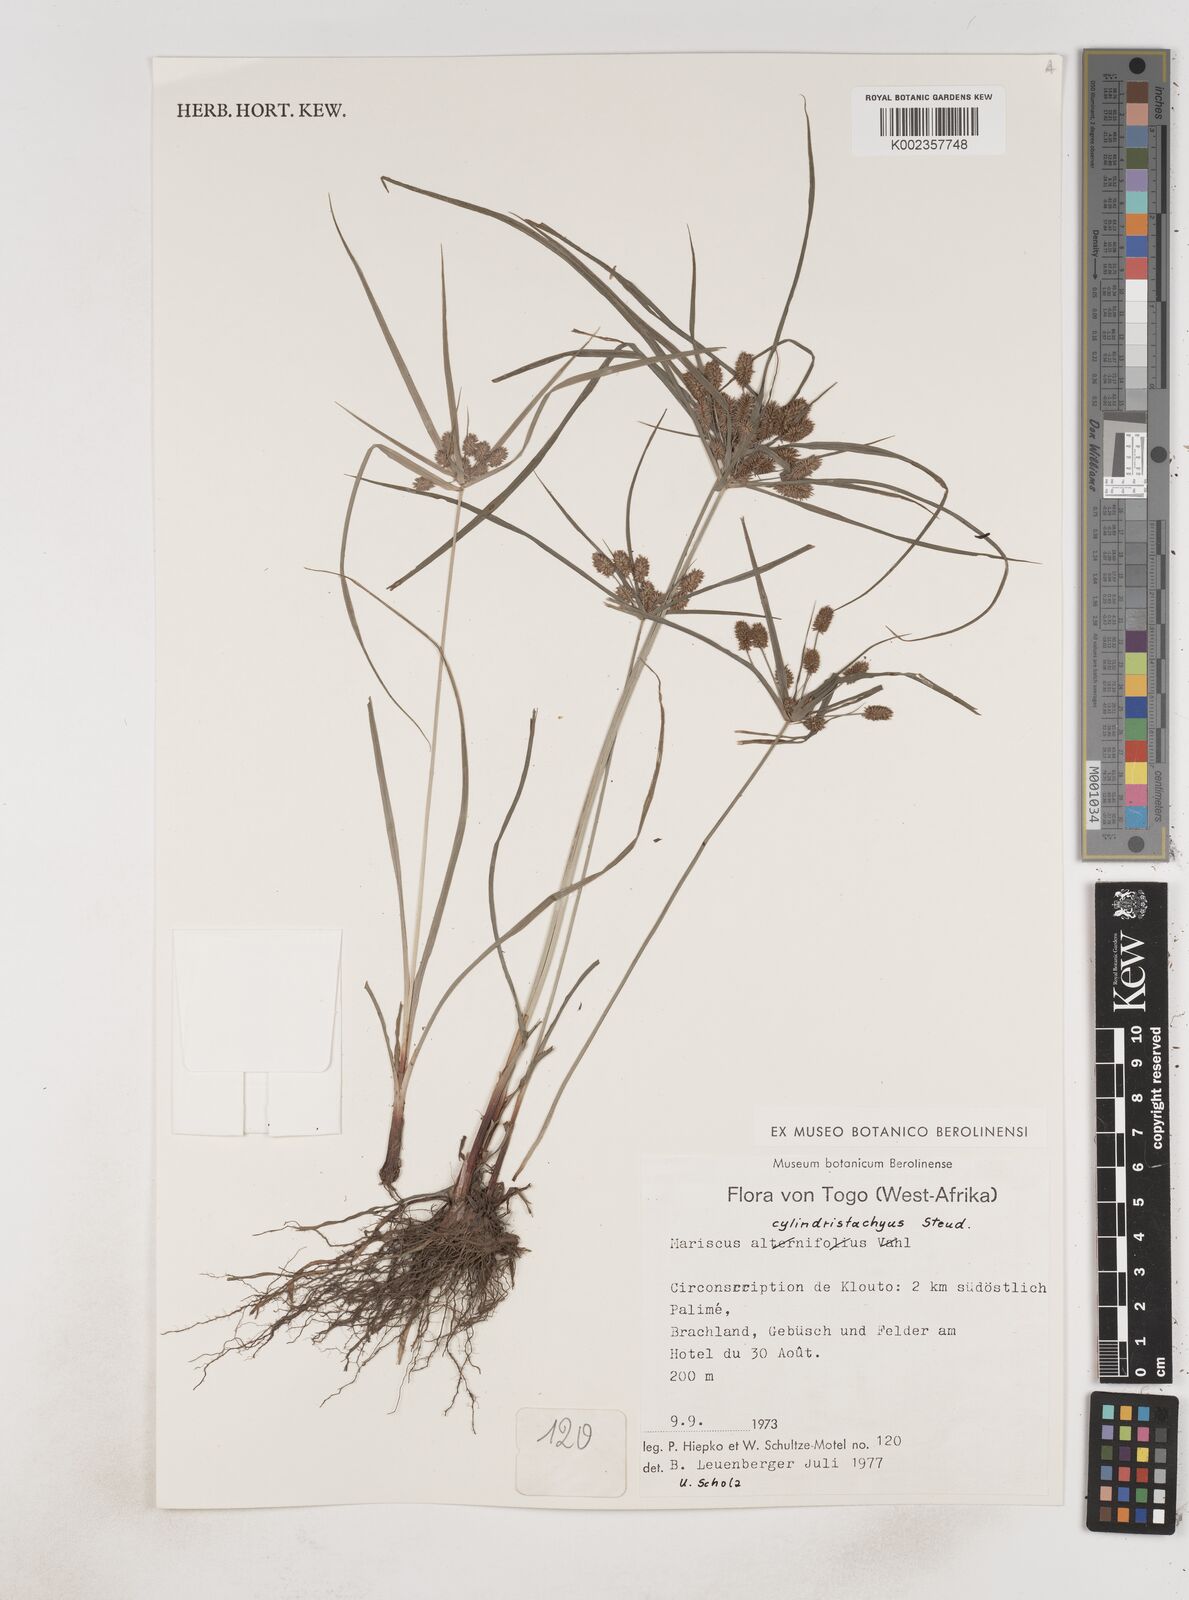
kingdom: Plantae
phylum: Tracheophyta
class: Liliopsida
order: Poales
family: Cyperaceae
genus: Cyperus
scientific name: Cyperus alternifolius
